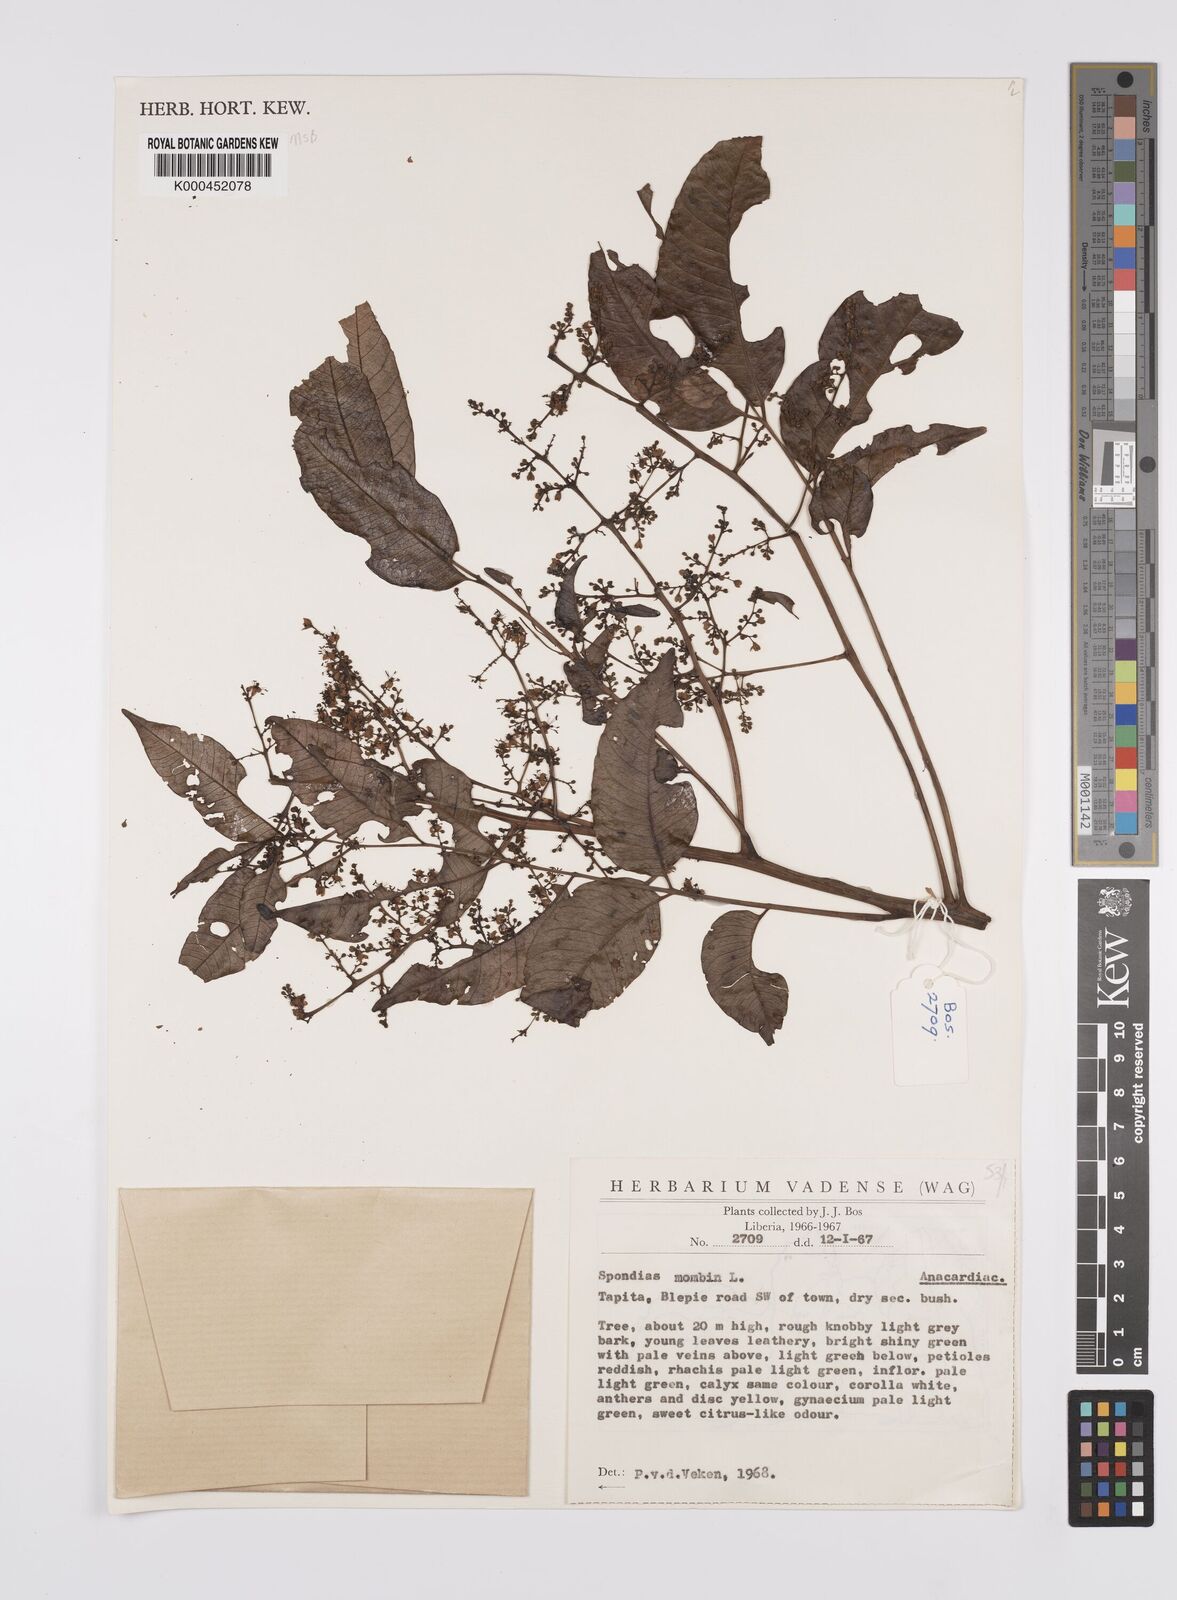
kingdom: Plantae
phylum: Tracheophyta
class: Magnoliopsida
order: Sapindales
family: Anacardiaceae
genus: Spondias
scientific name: Spondias mombin
